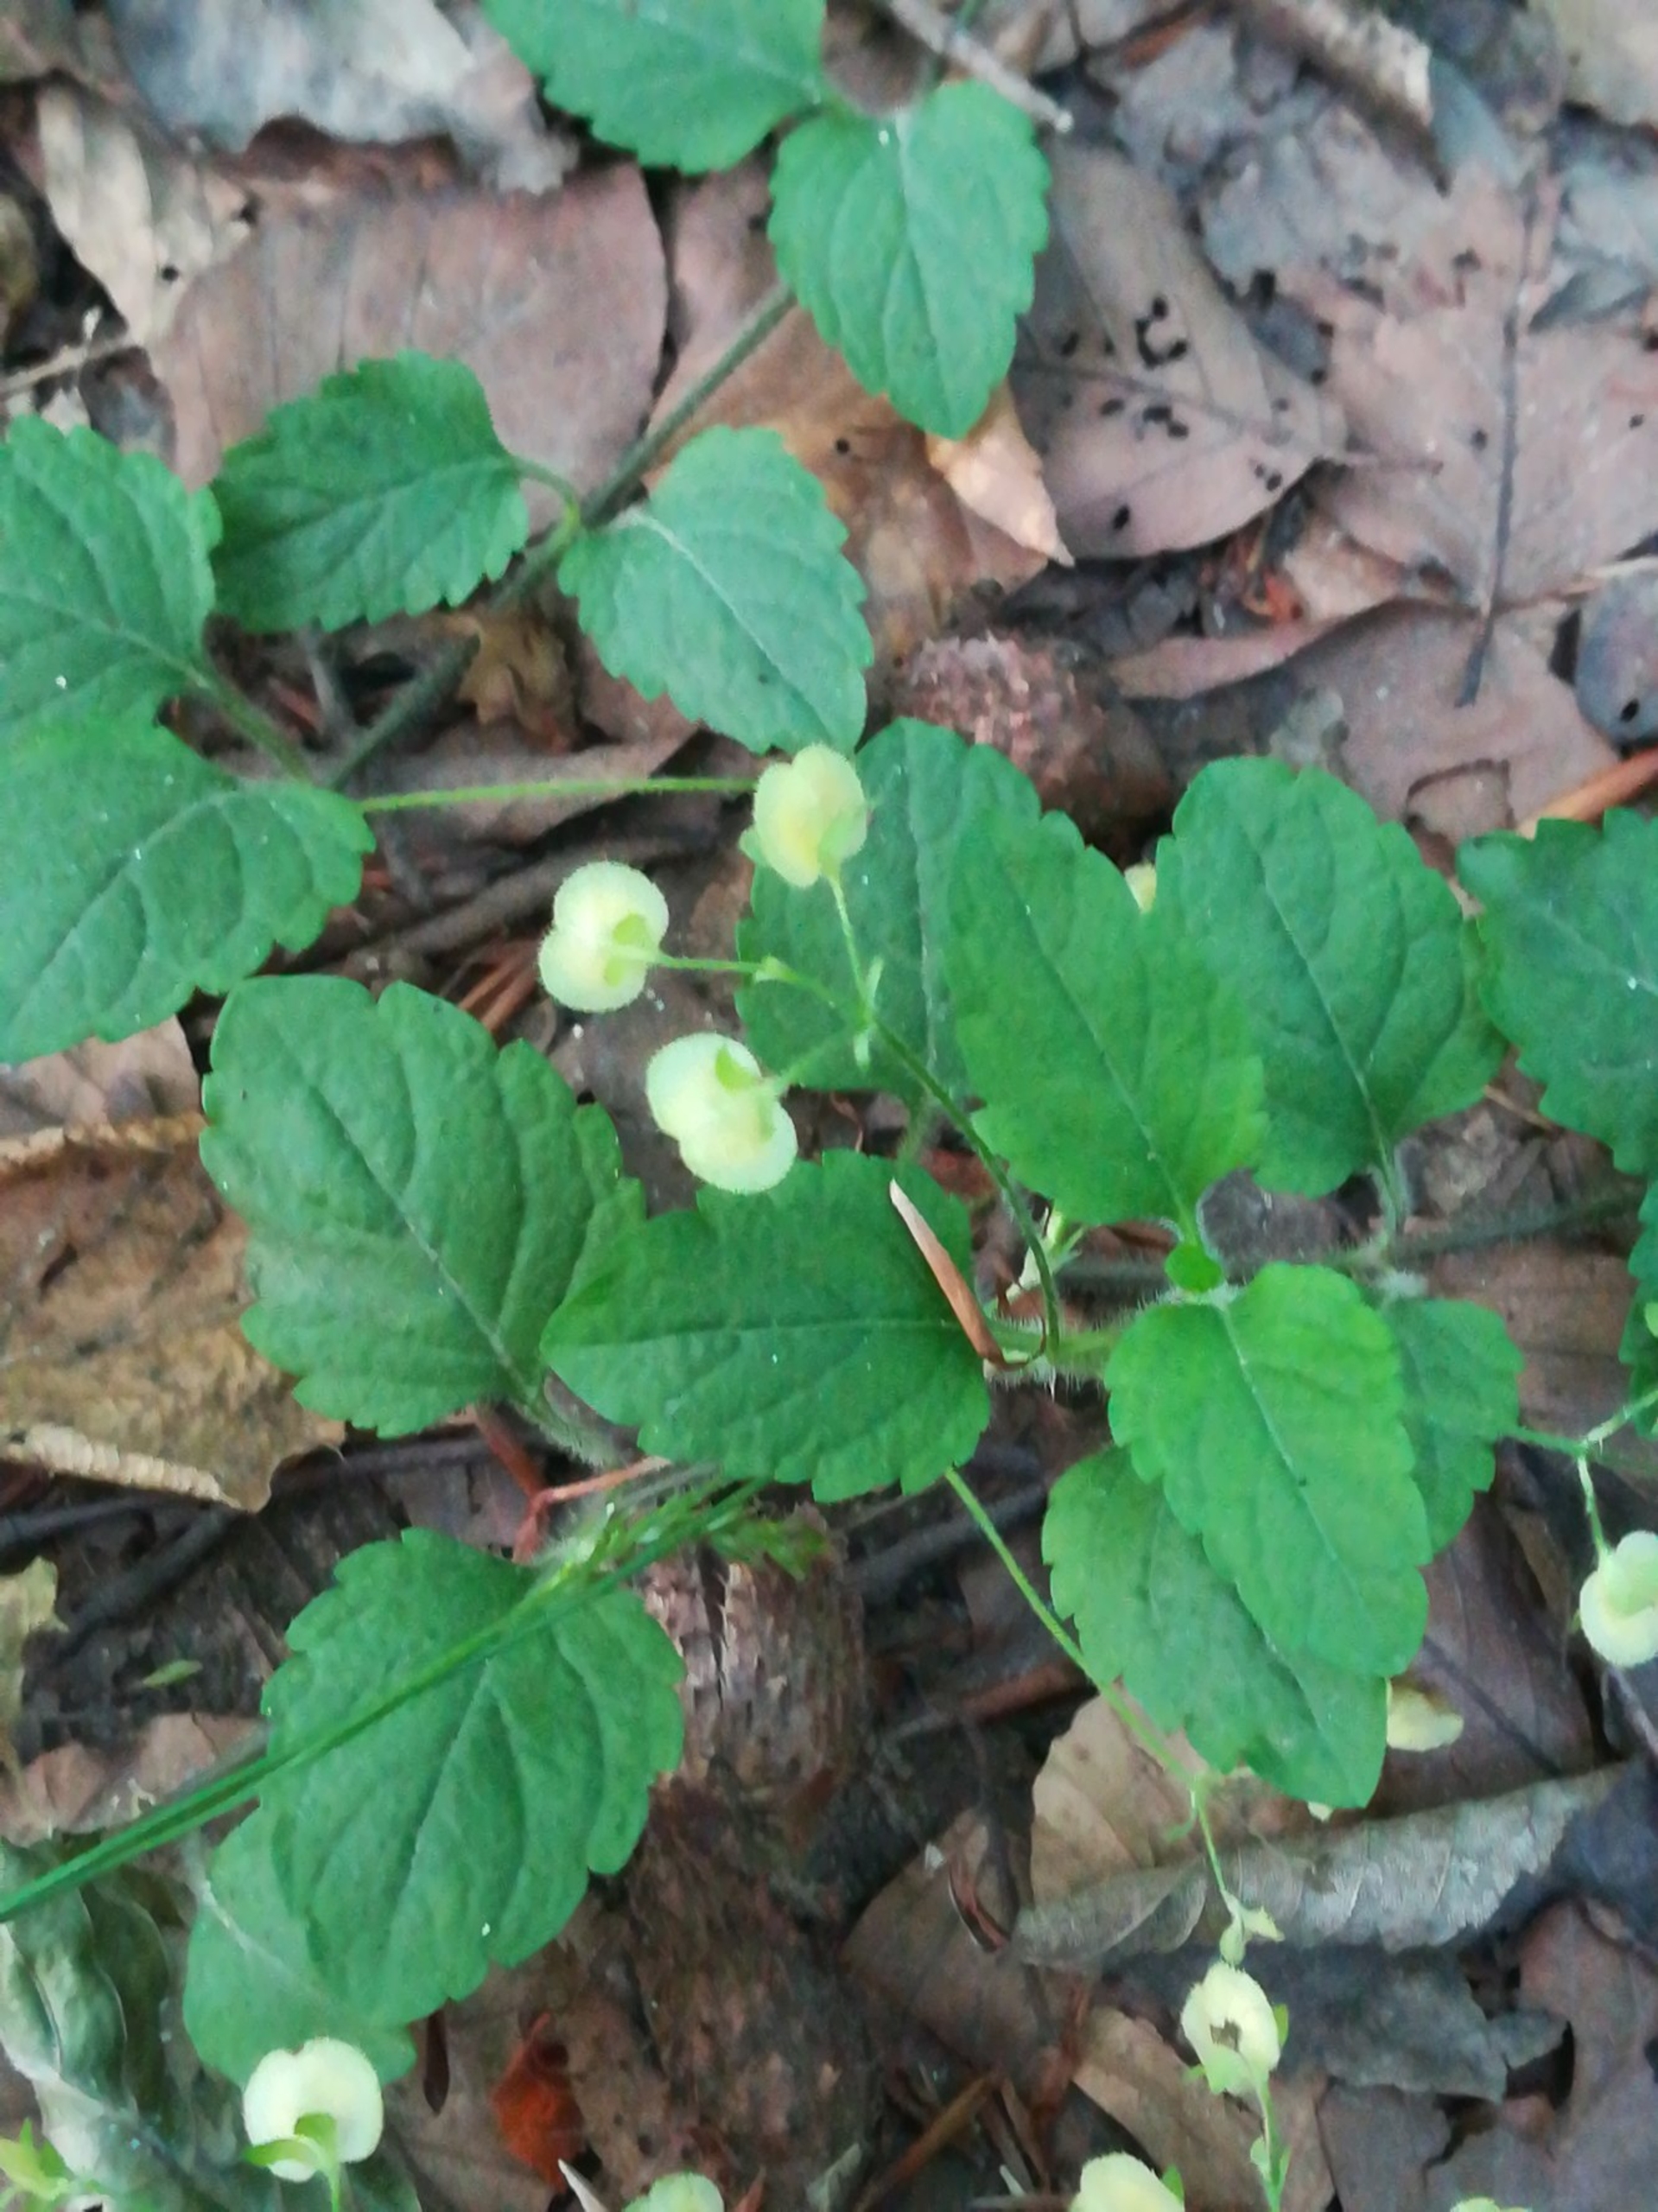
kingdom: Plantae
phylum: Tracheophyta
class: Magnoliopsida
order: Lamiales
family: Plantaginaceae
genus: Veronica
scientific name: Veronica montana
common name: Bjerg-ærenpris
